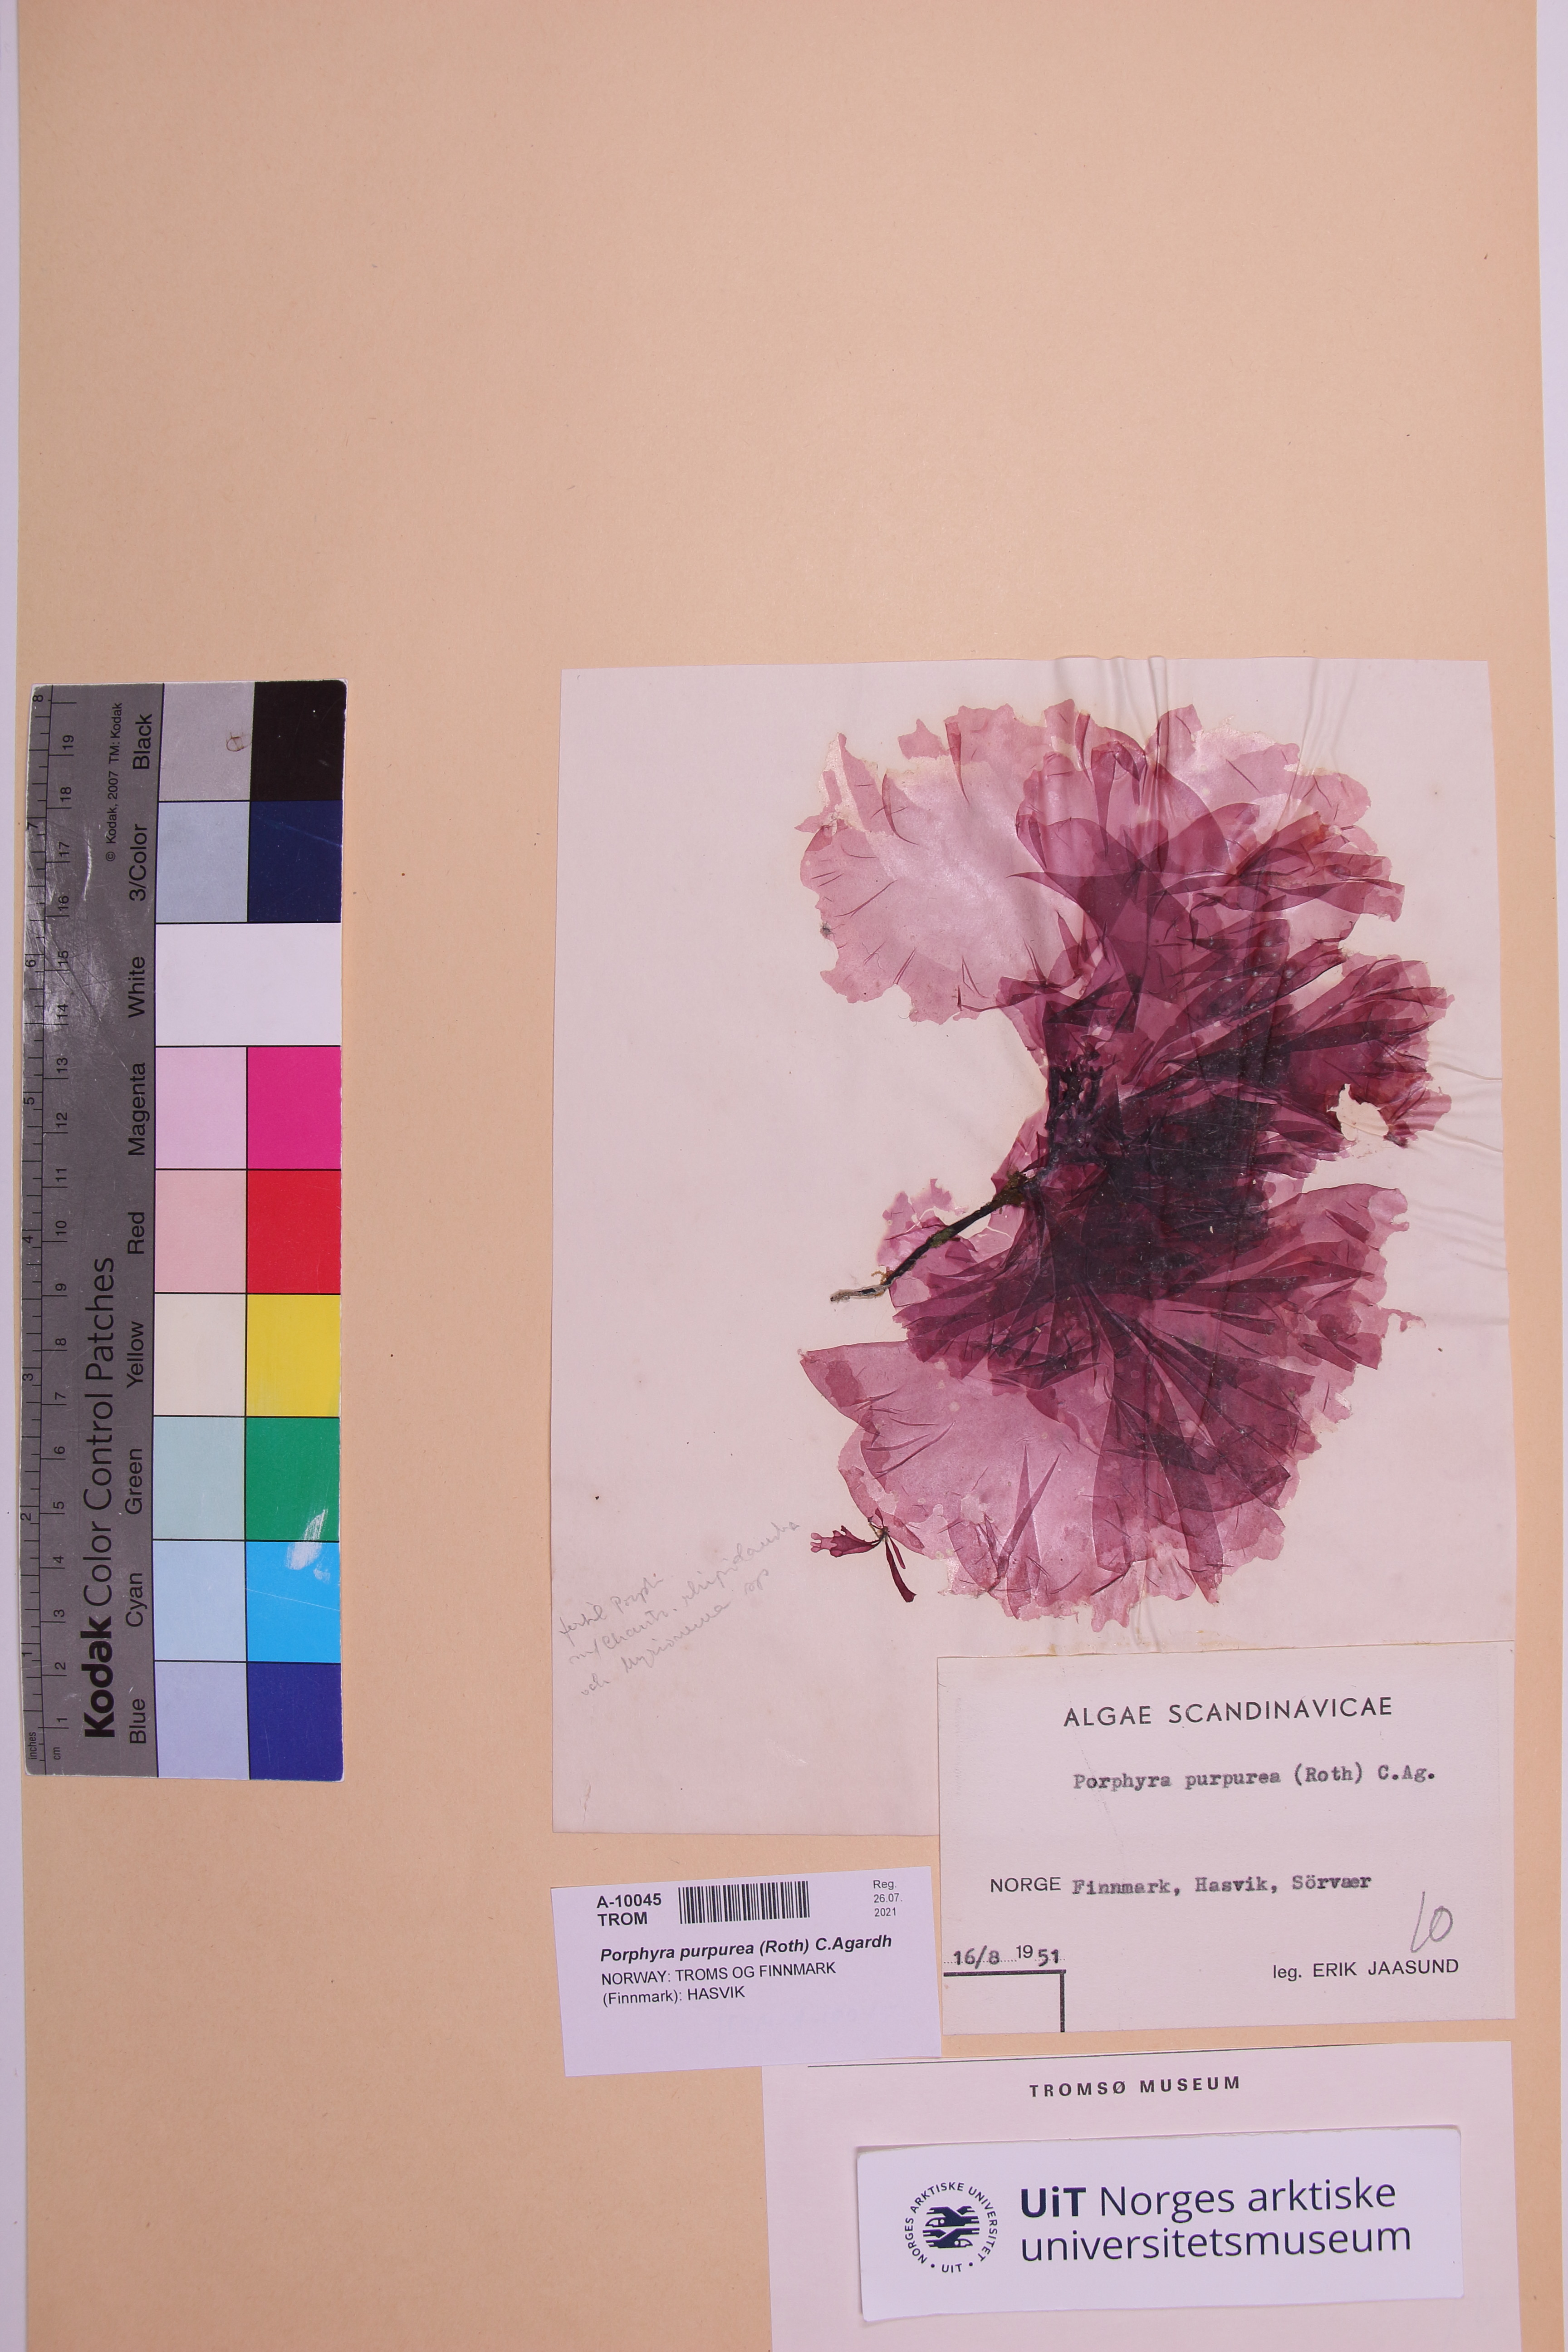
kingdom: Plantae
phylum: Rhodophyta
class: Bangiophyceae
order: Bangiales
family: Bangiaceae
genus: Porphyra
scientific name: Porphyra purpurea
